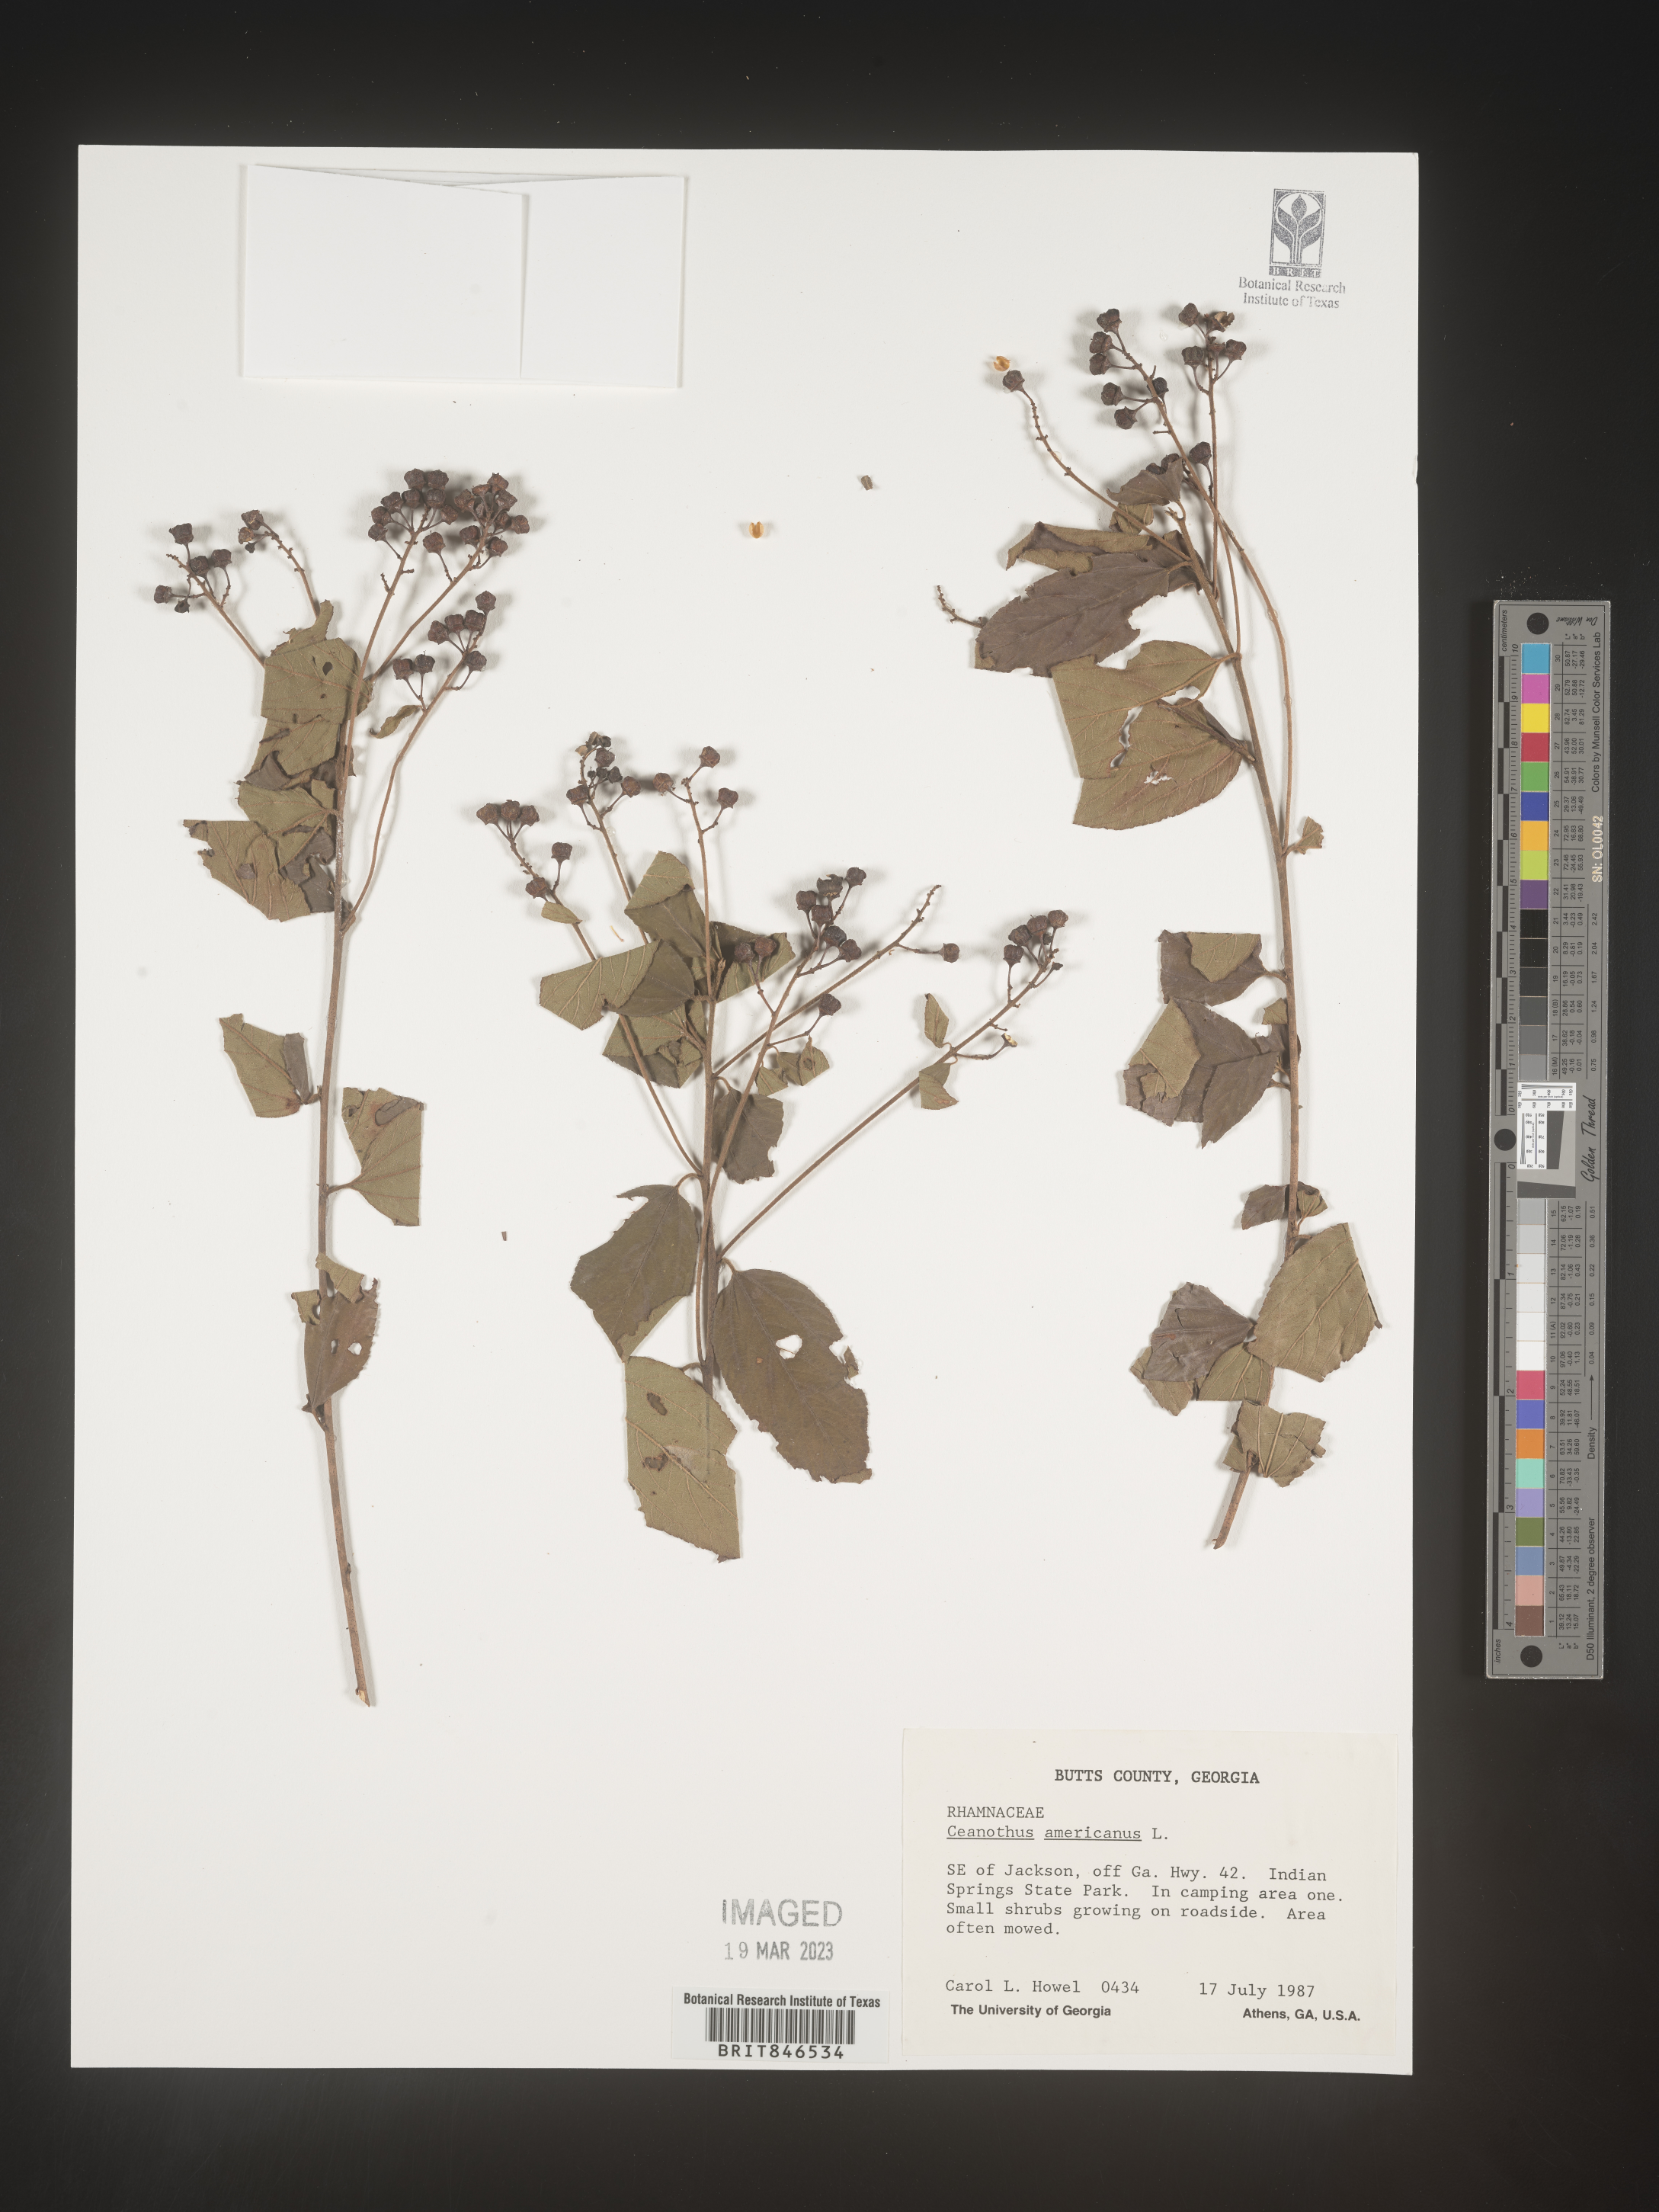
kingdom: Plantae
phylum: Tracheophyta
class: Magnoliopsida
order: Rosales
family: Rhamnaceae
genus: Ceanothus
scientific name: Ceanothus americanus
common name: Redroot
